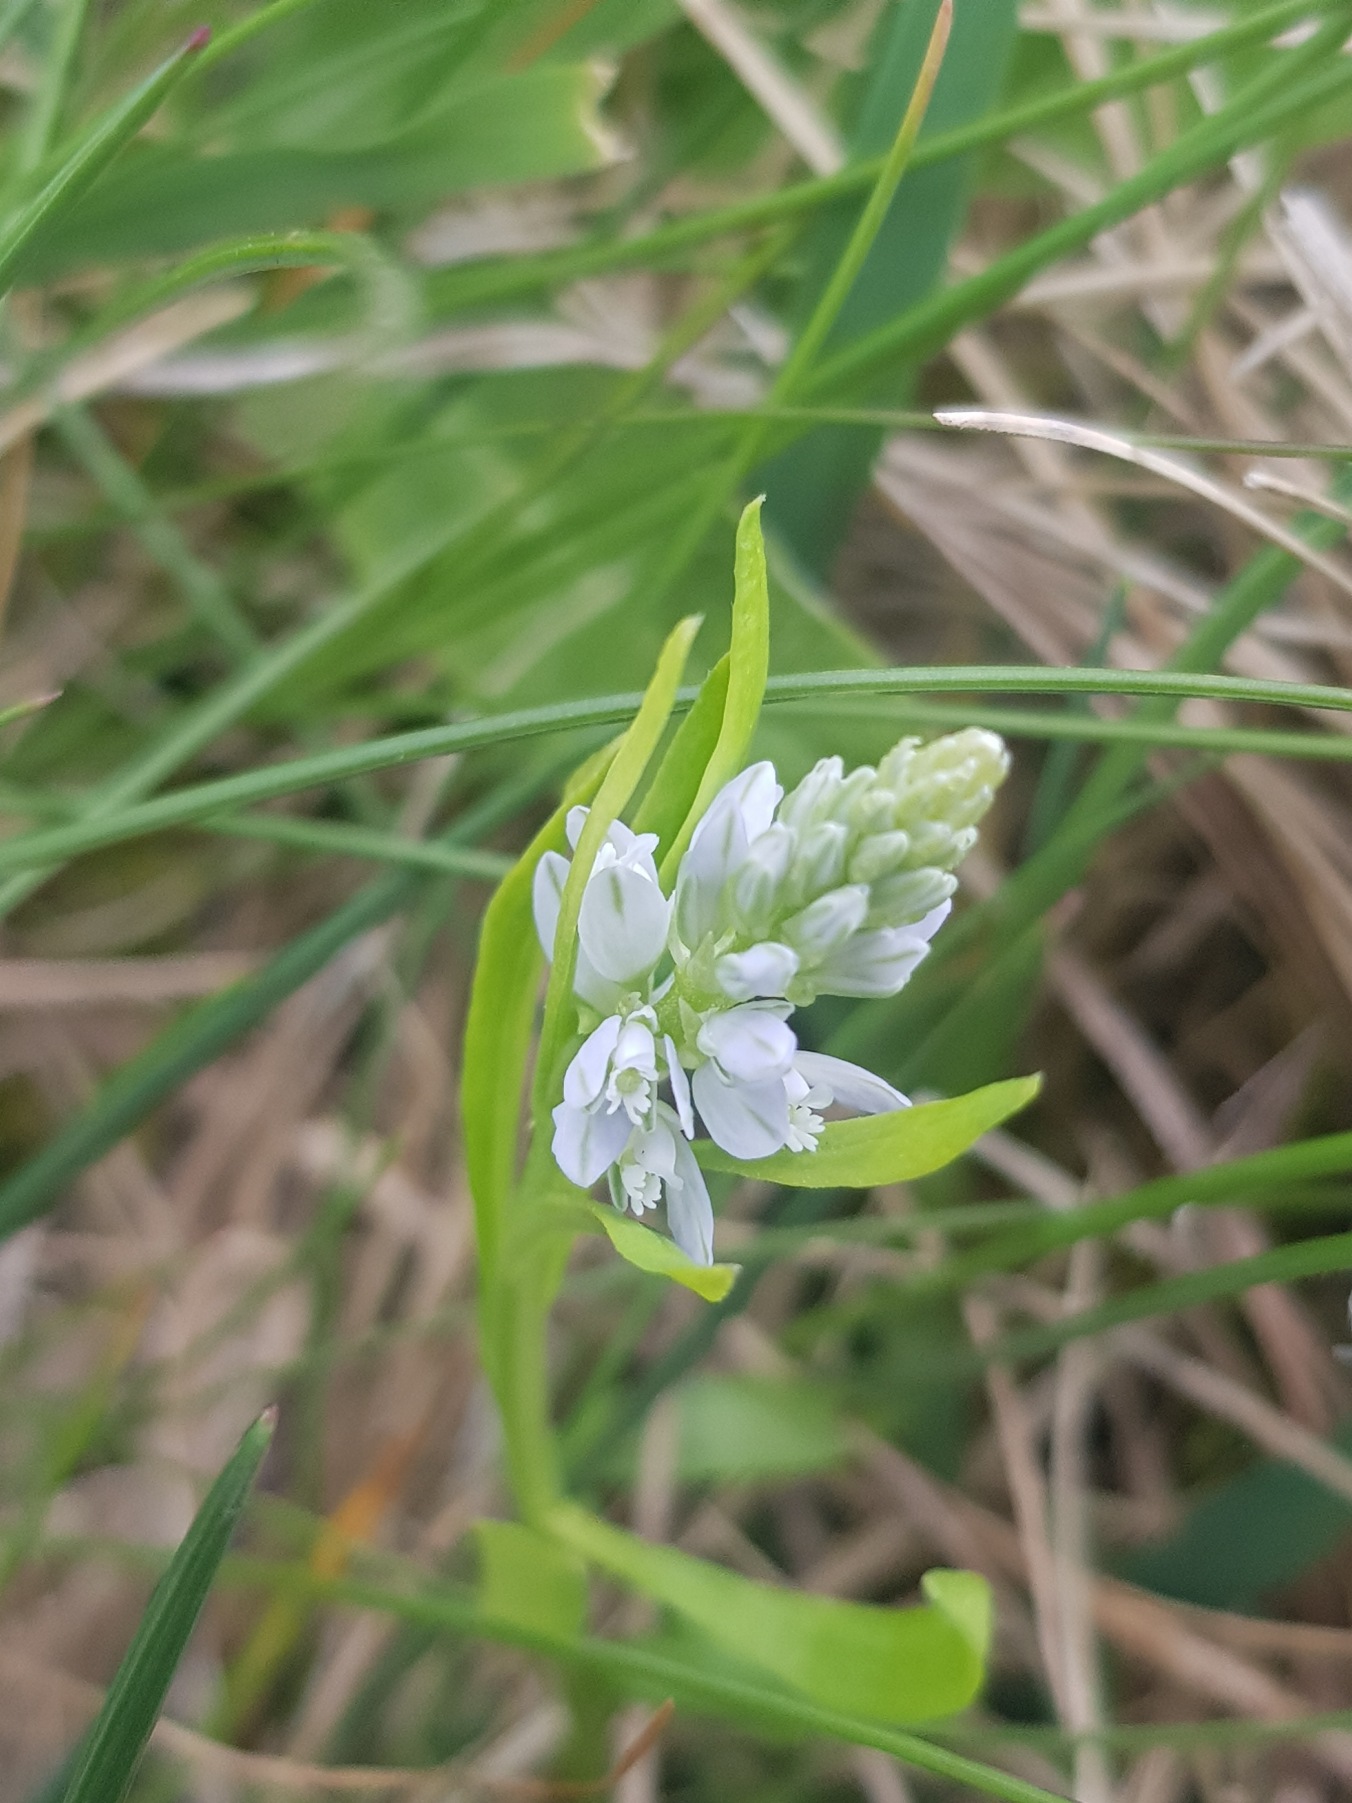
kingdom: Plantae
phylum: Tracheophyta
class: Magnoliopsida
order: Fabales
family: Polygalaceae
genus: Polygala
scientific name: Polygala amarella
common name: Bitter mælkeurt
